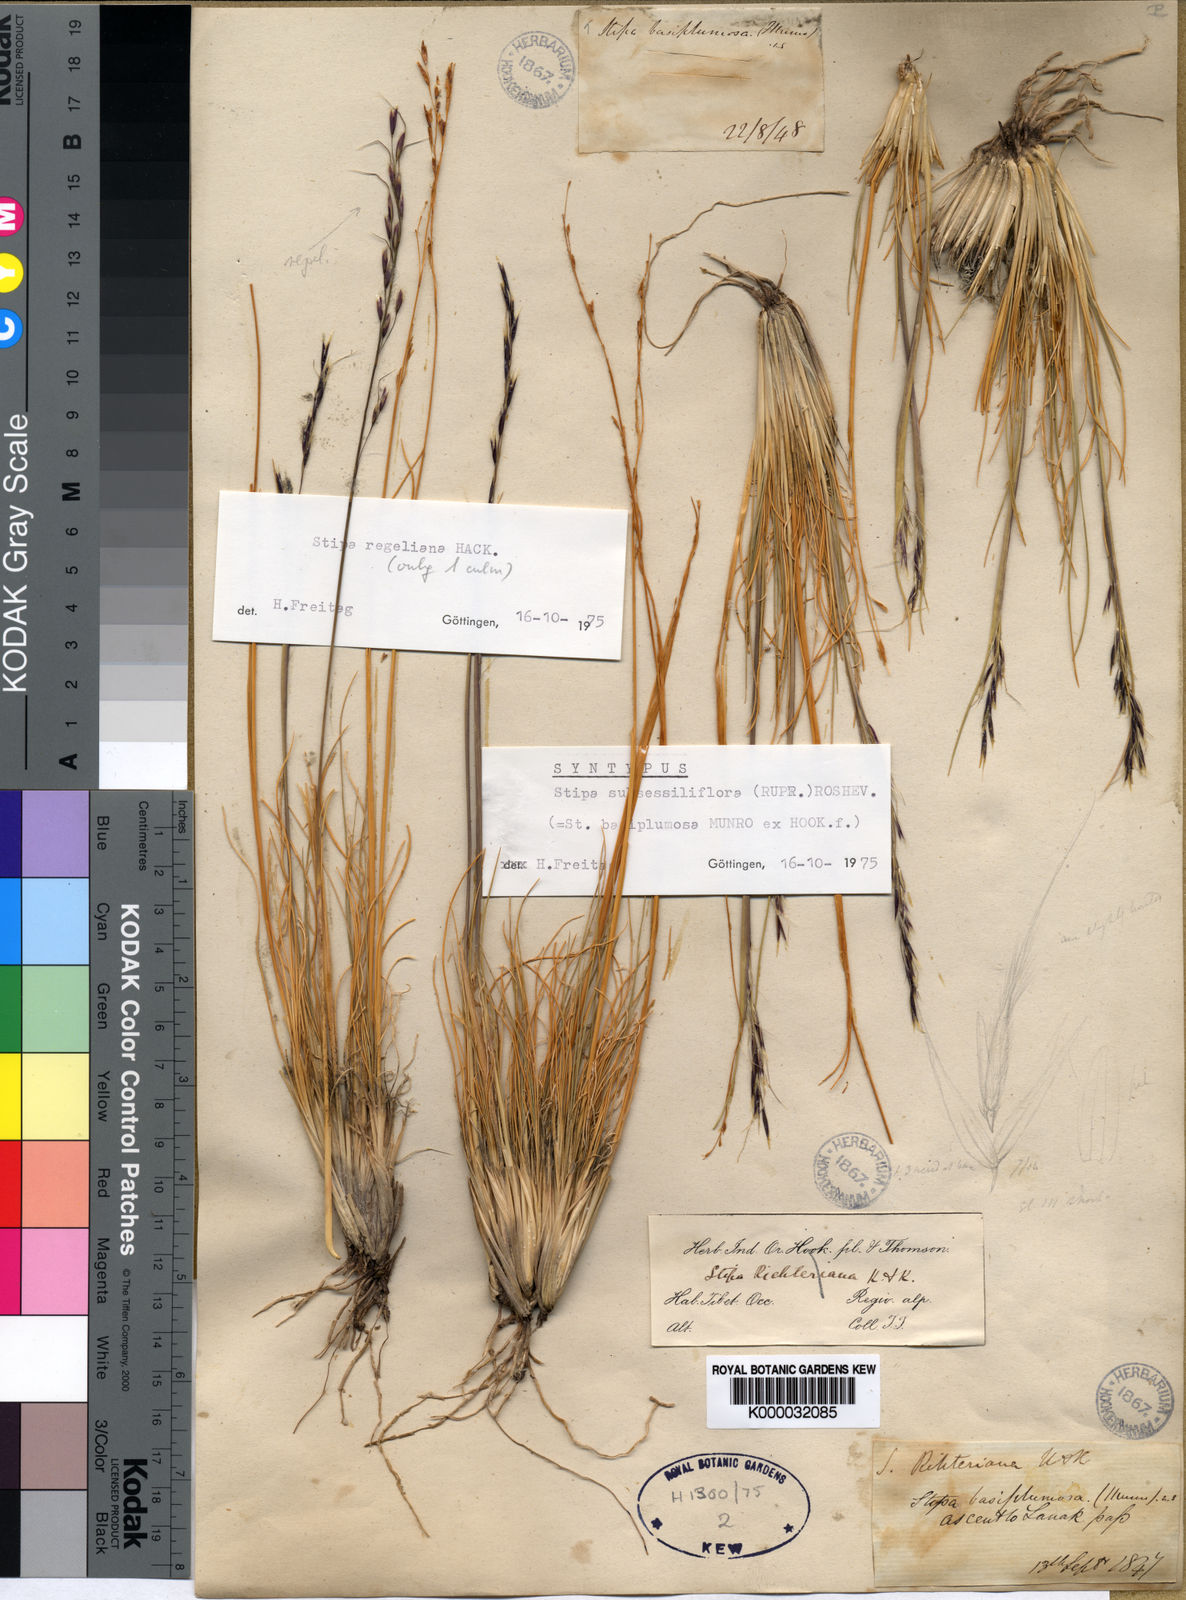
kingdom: Plantae
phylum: Tracheophyta
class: Liliopsida
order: Poales
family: Poaceae
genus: Stipa
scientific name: Stipa subsessiliflora
